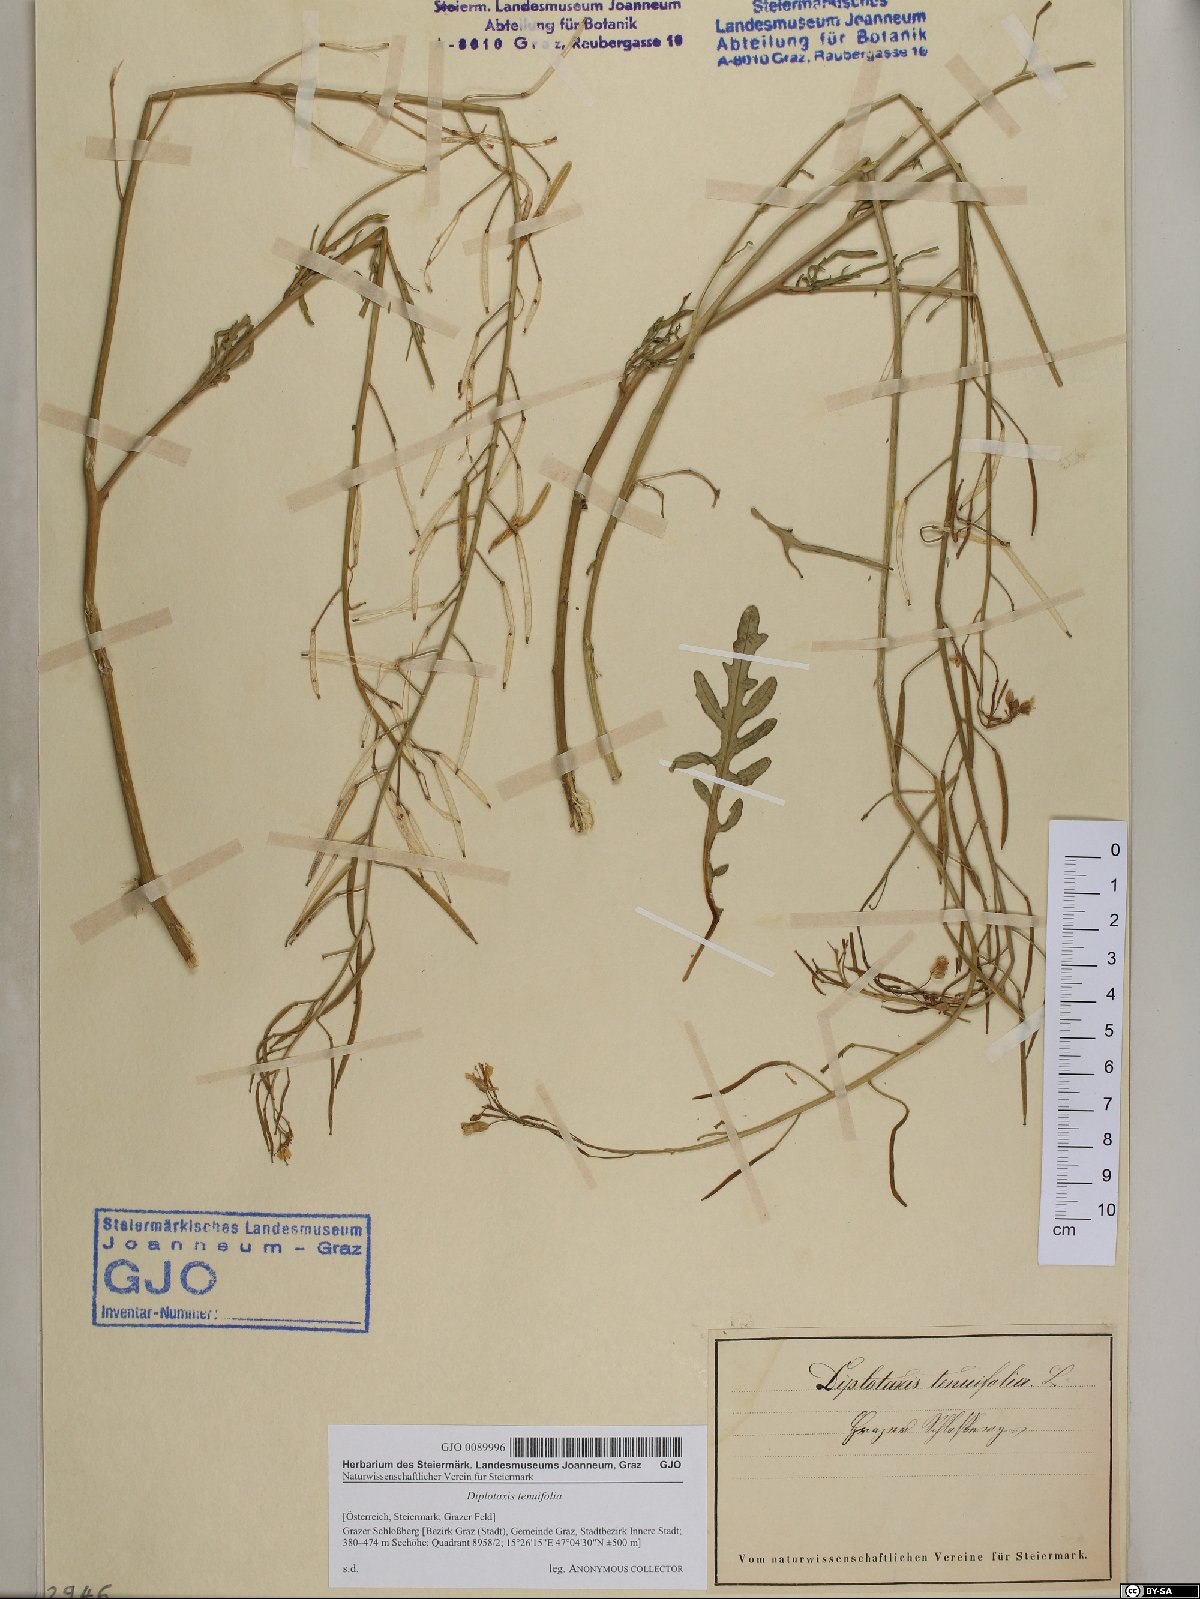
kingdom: Plantae
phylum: Tracheophyta
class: Magnoliopsida
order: Brassicales
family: Brassicaceae
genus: Diplotaxis
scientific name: Diplotaxis tenuifolia
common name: Perennial wall-rocket
